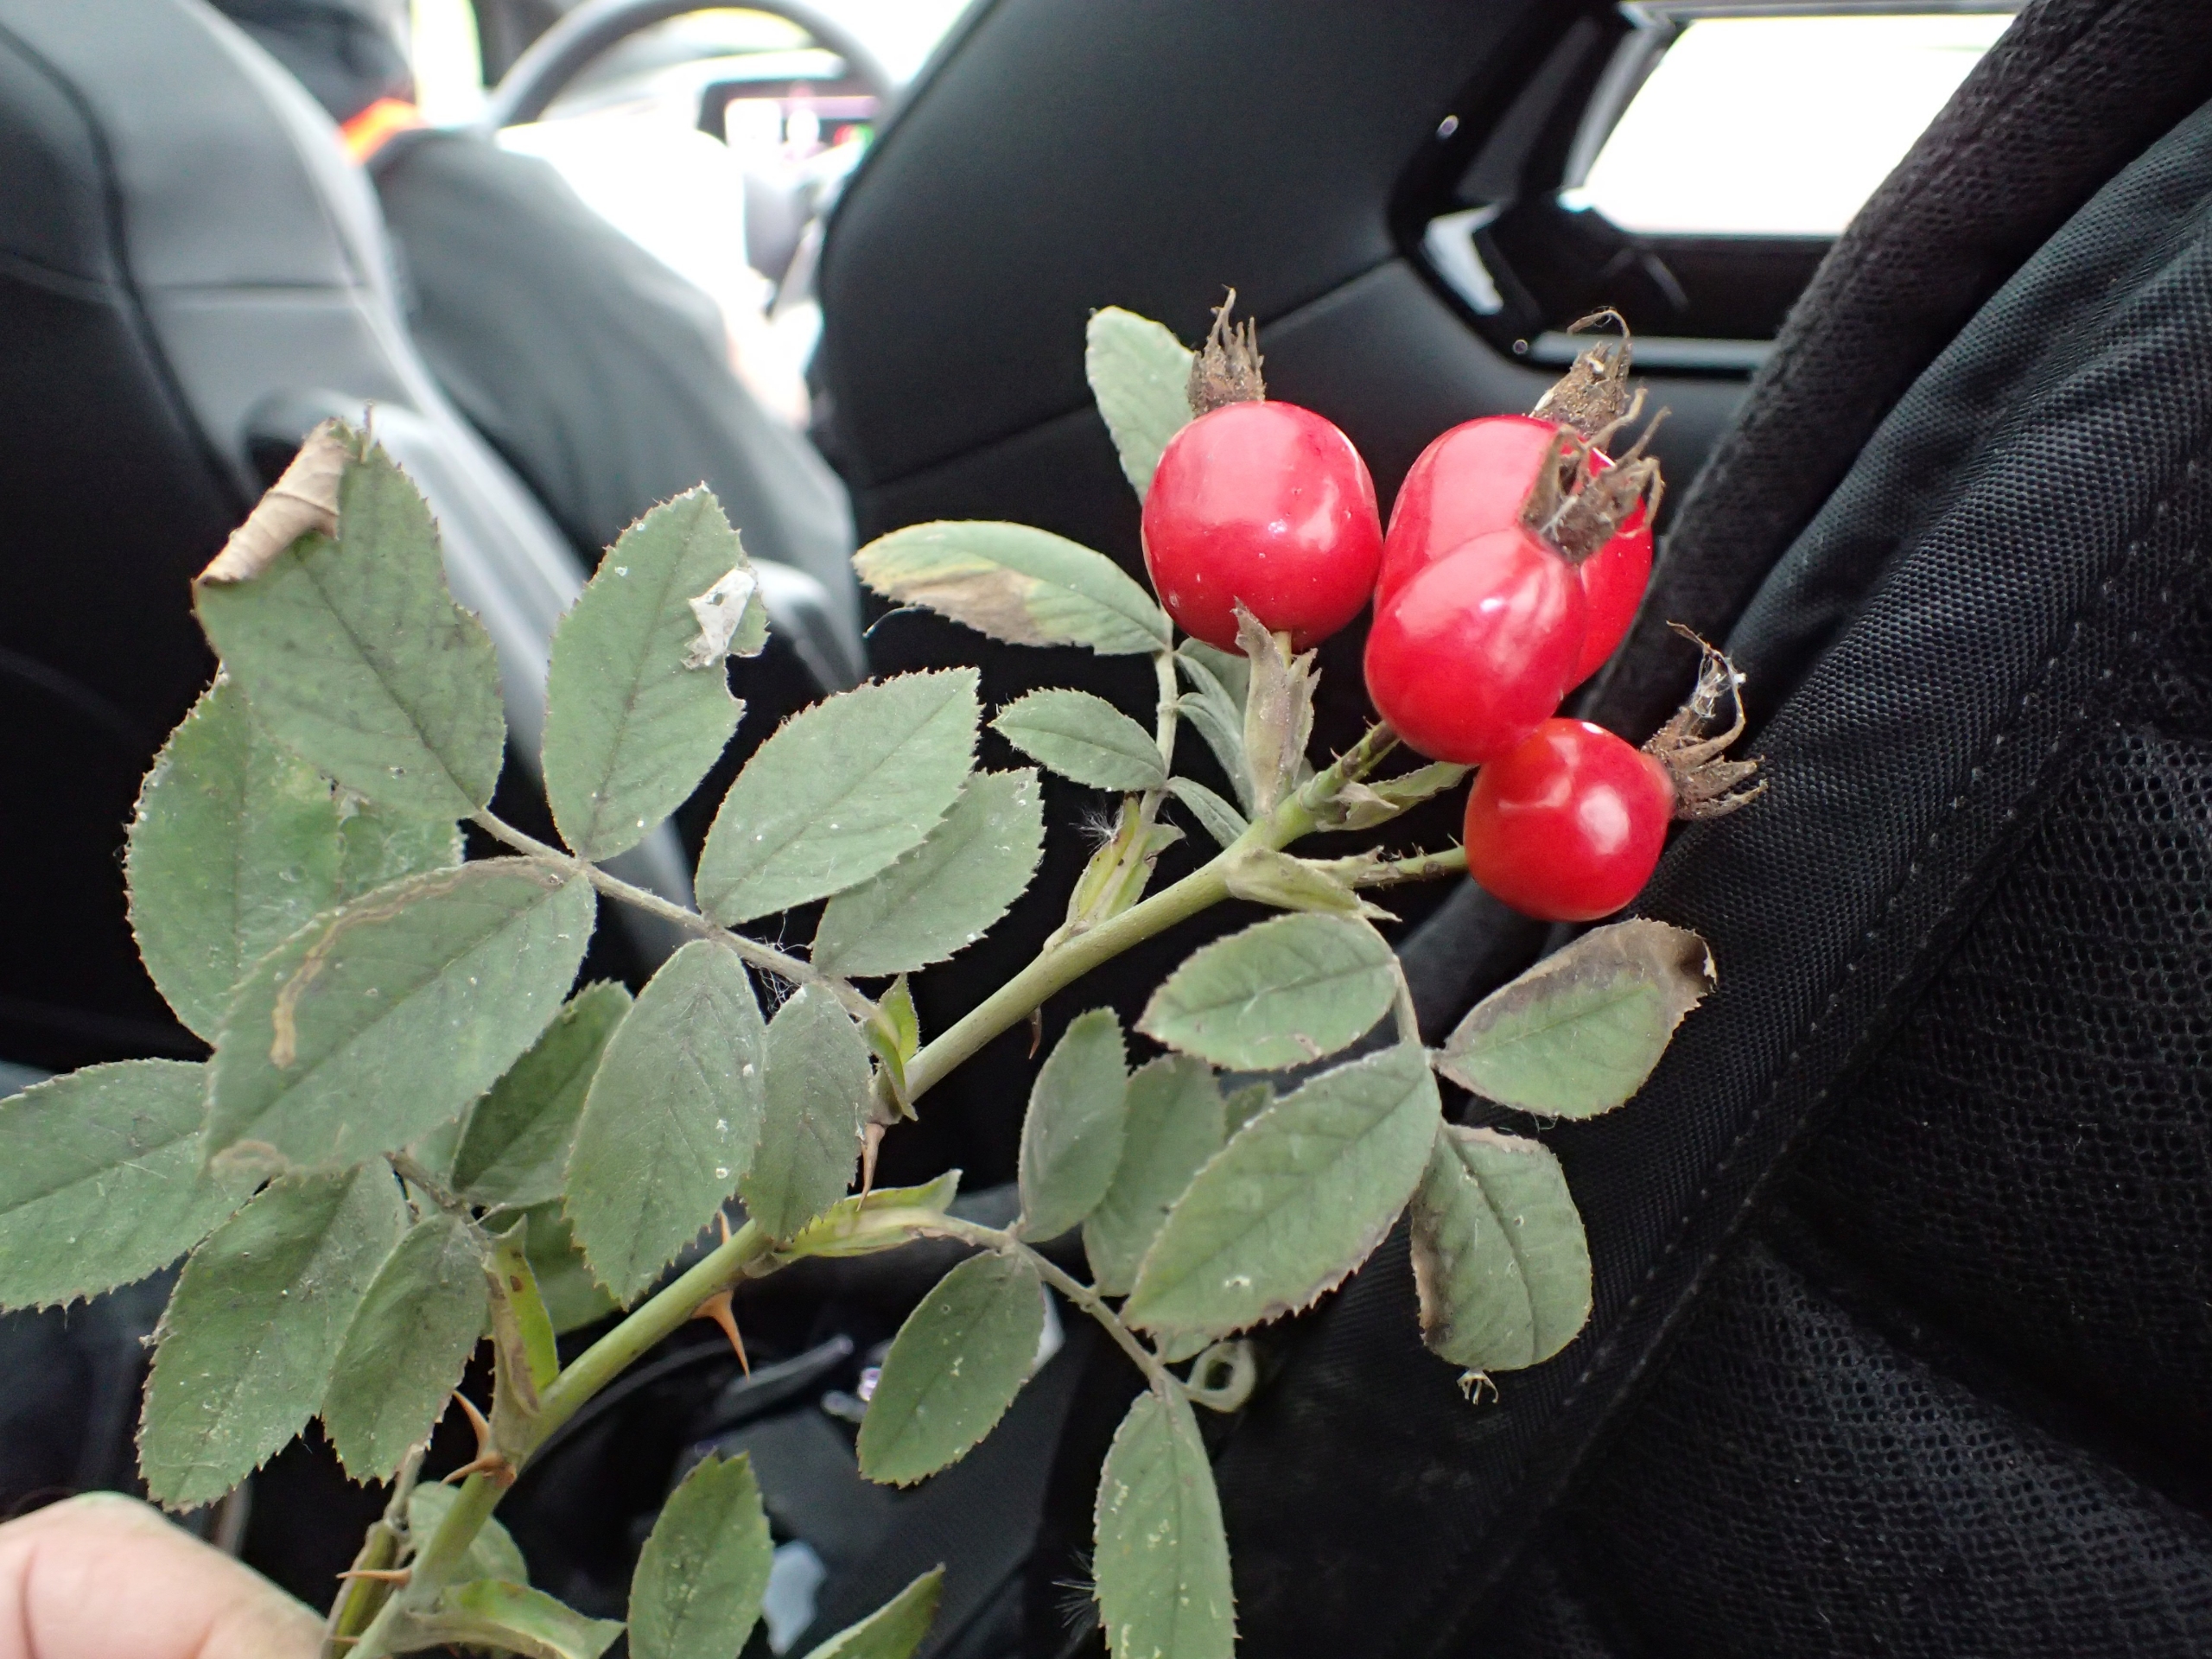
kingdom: Plantae
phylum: Tracheophyta
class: Magnoliopsida
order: Rosales
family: Rosaceae
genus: Rosa
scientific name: Rosa sherardii
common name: Kortstilket filt-rose
